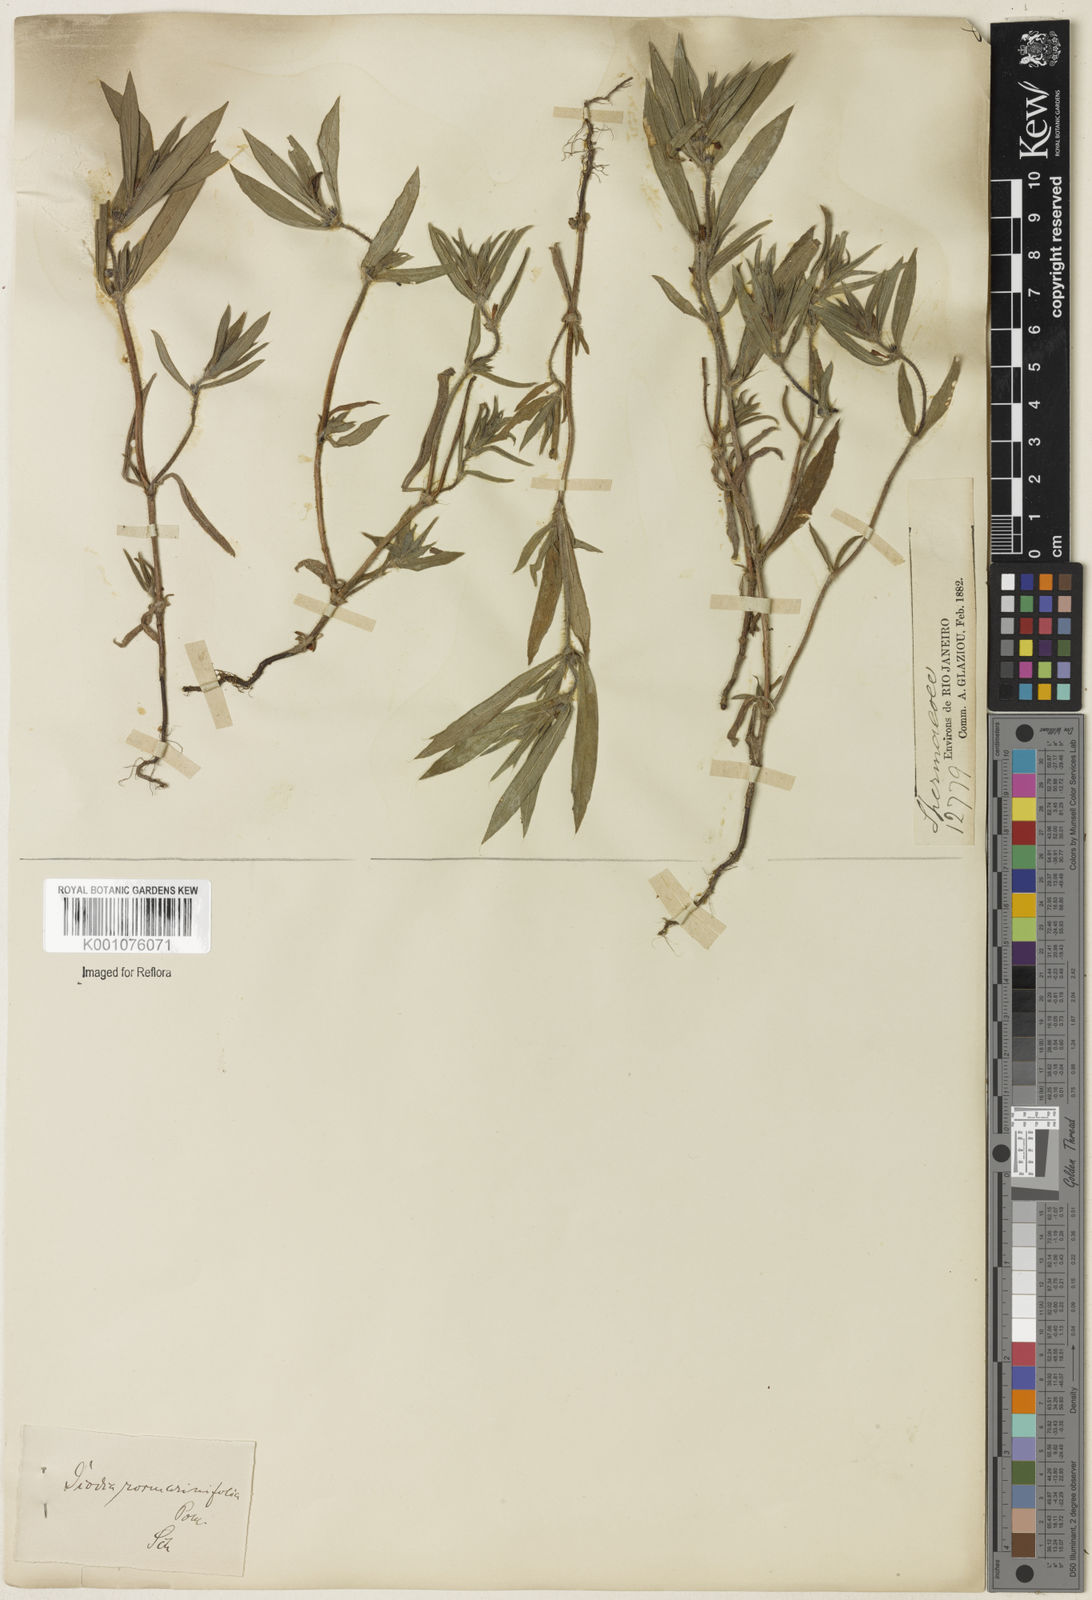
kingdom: Plantae
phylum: Tracheophyta
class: Magnoliopsida
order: Gentianales
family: Rubiaceae
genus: Hexasepalum
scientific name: Hexasepalum
